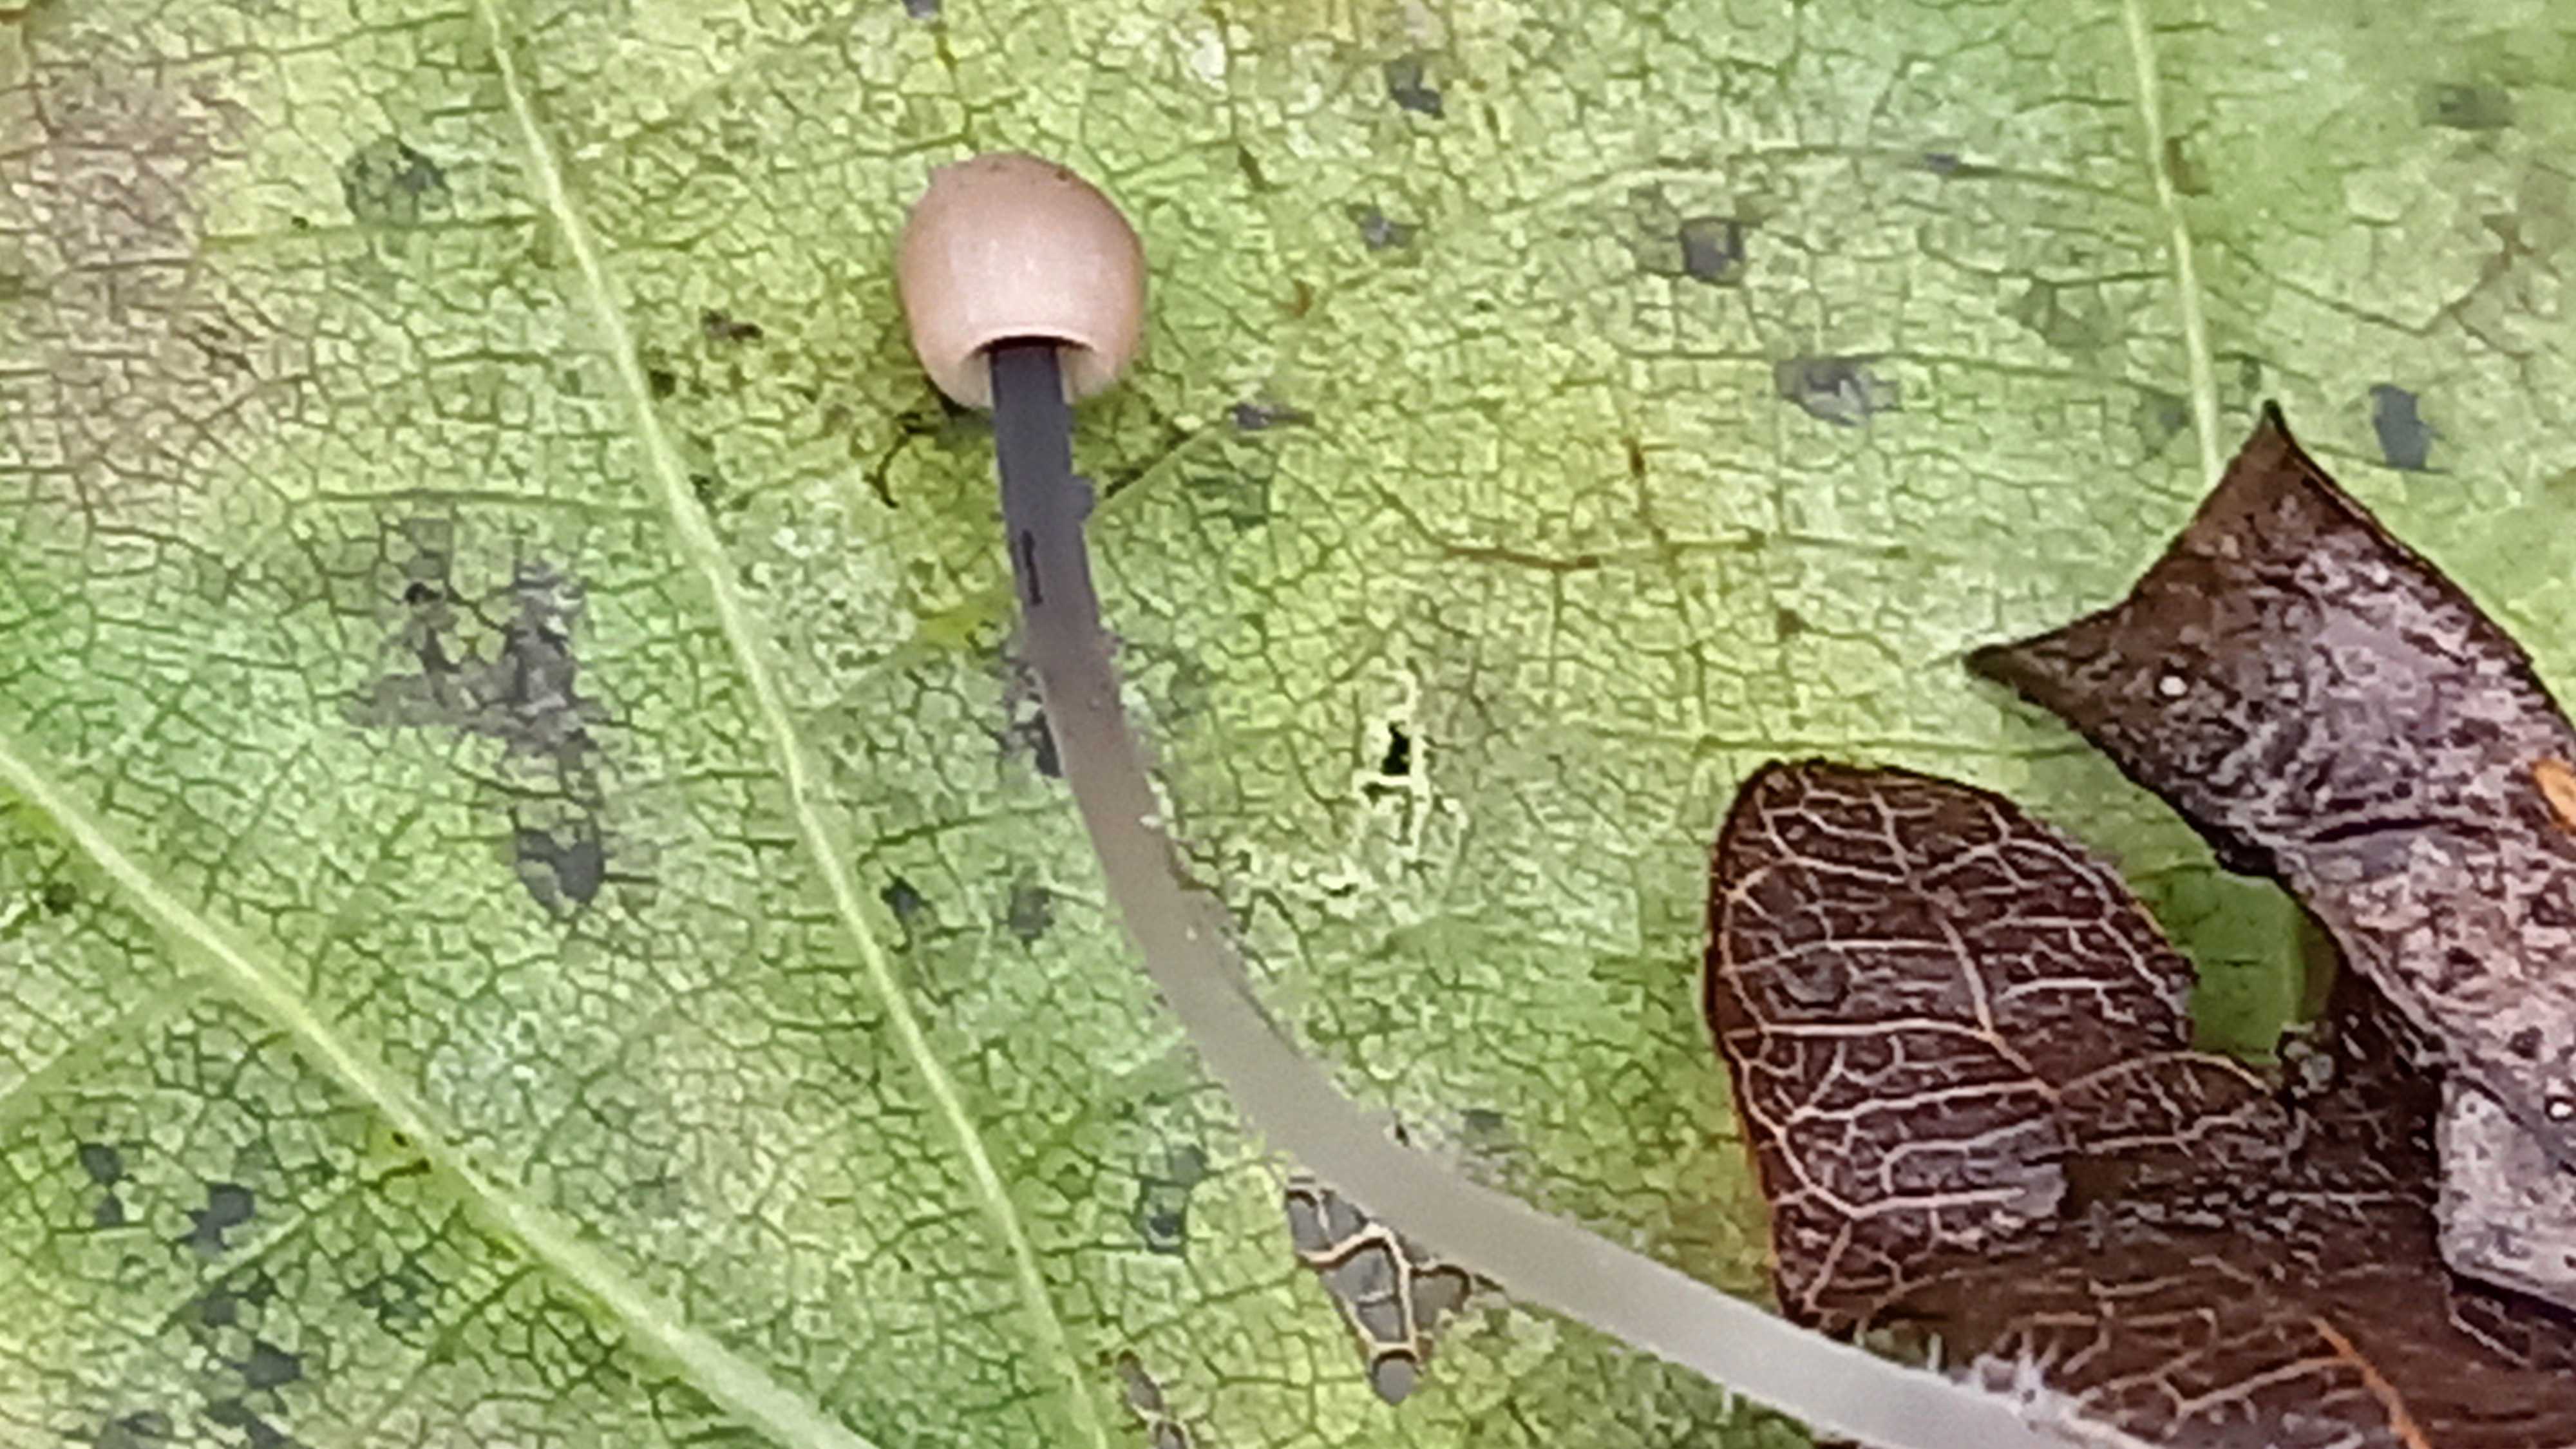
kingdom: Fungi
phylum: Basidiomycota
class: Agaricomycetes
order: Agaricales
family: Mycenaceae
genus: Mycena
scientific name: Mycena
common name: huesvamp
